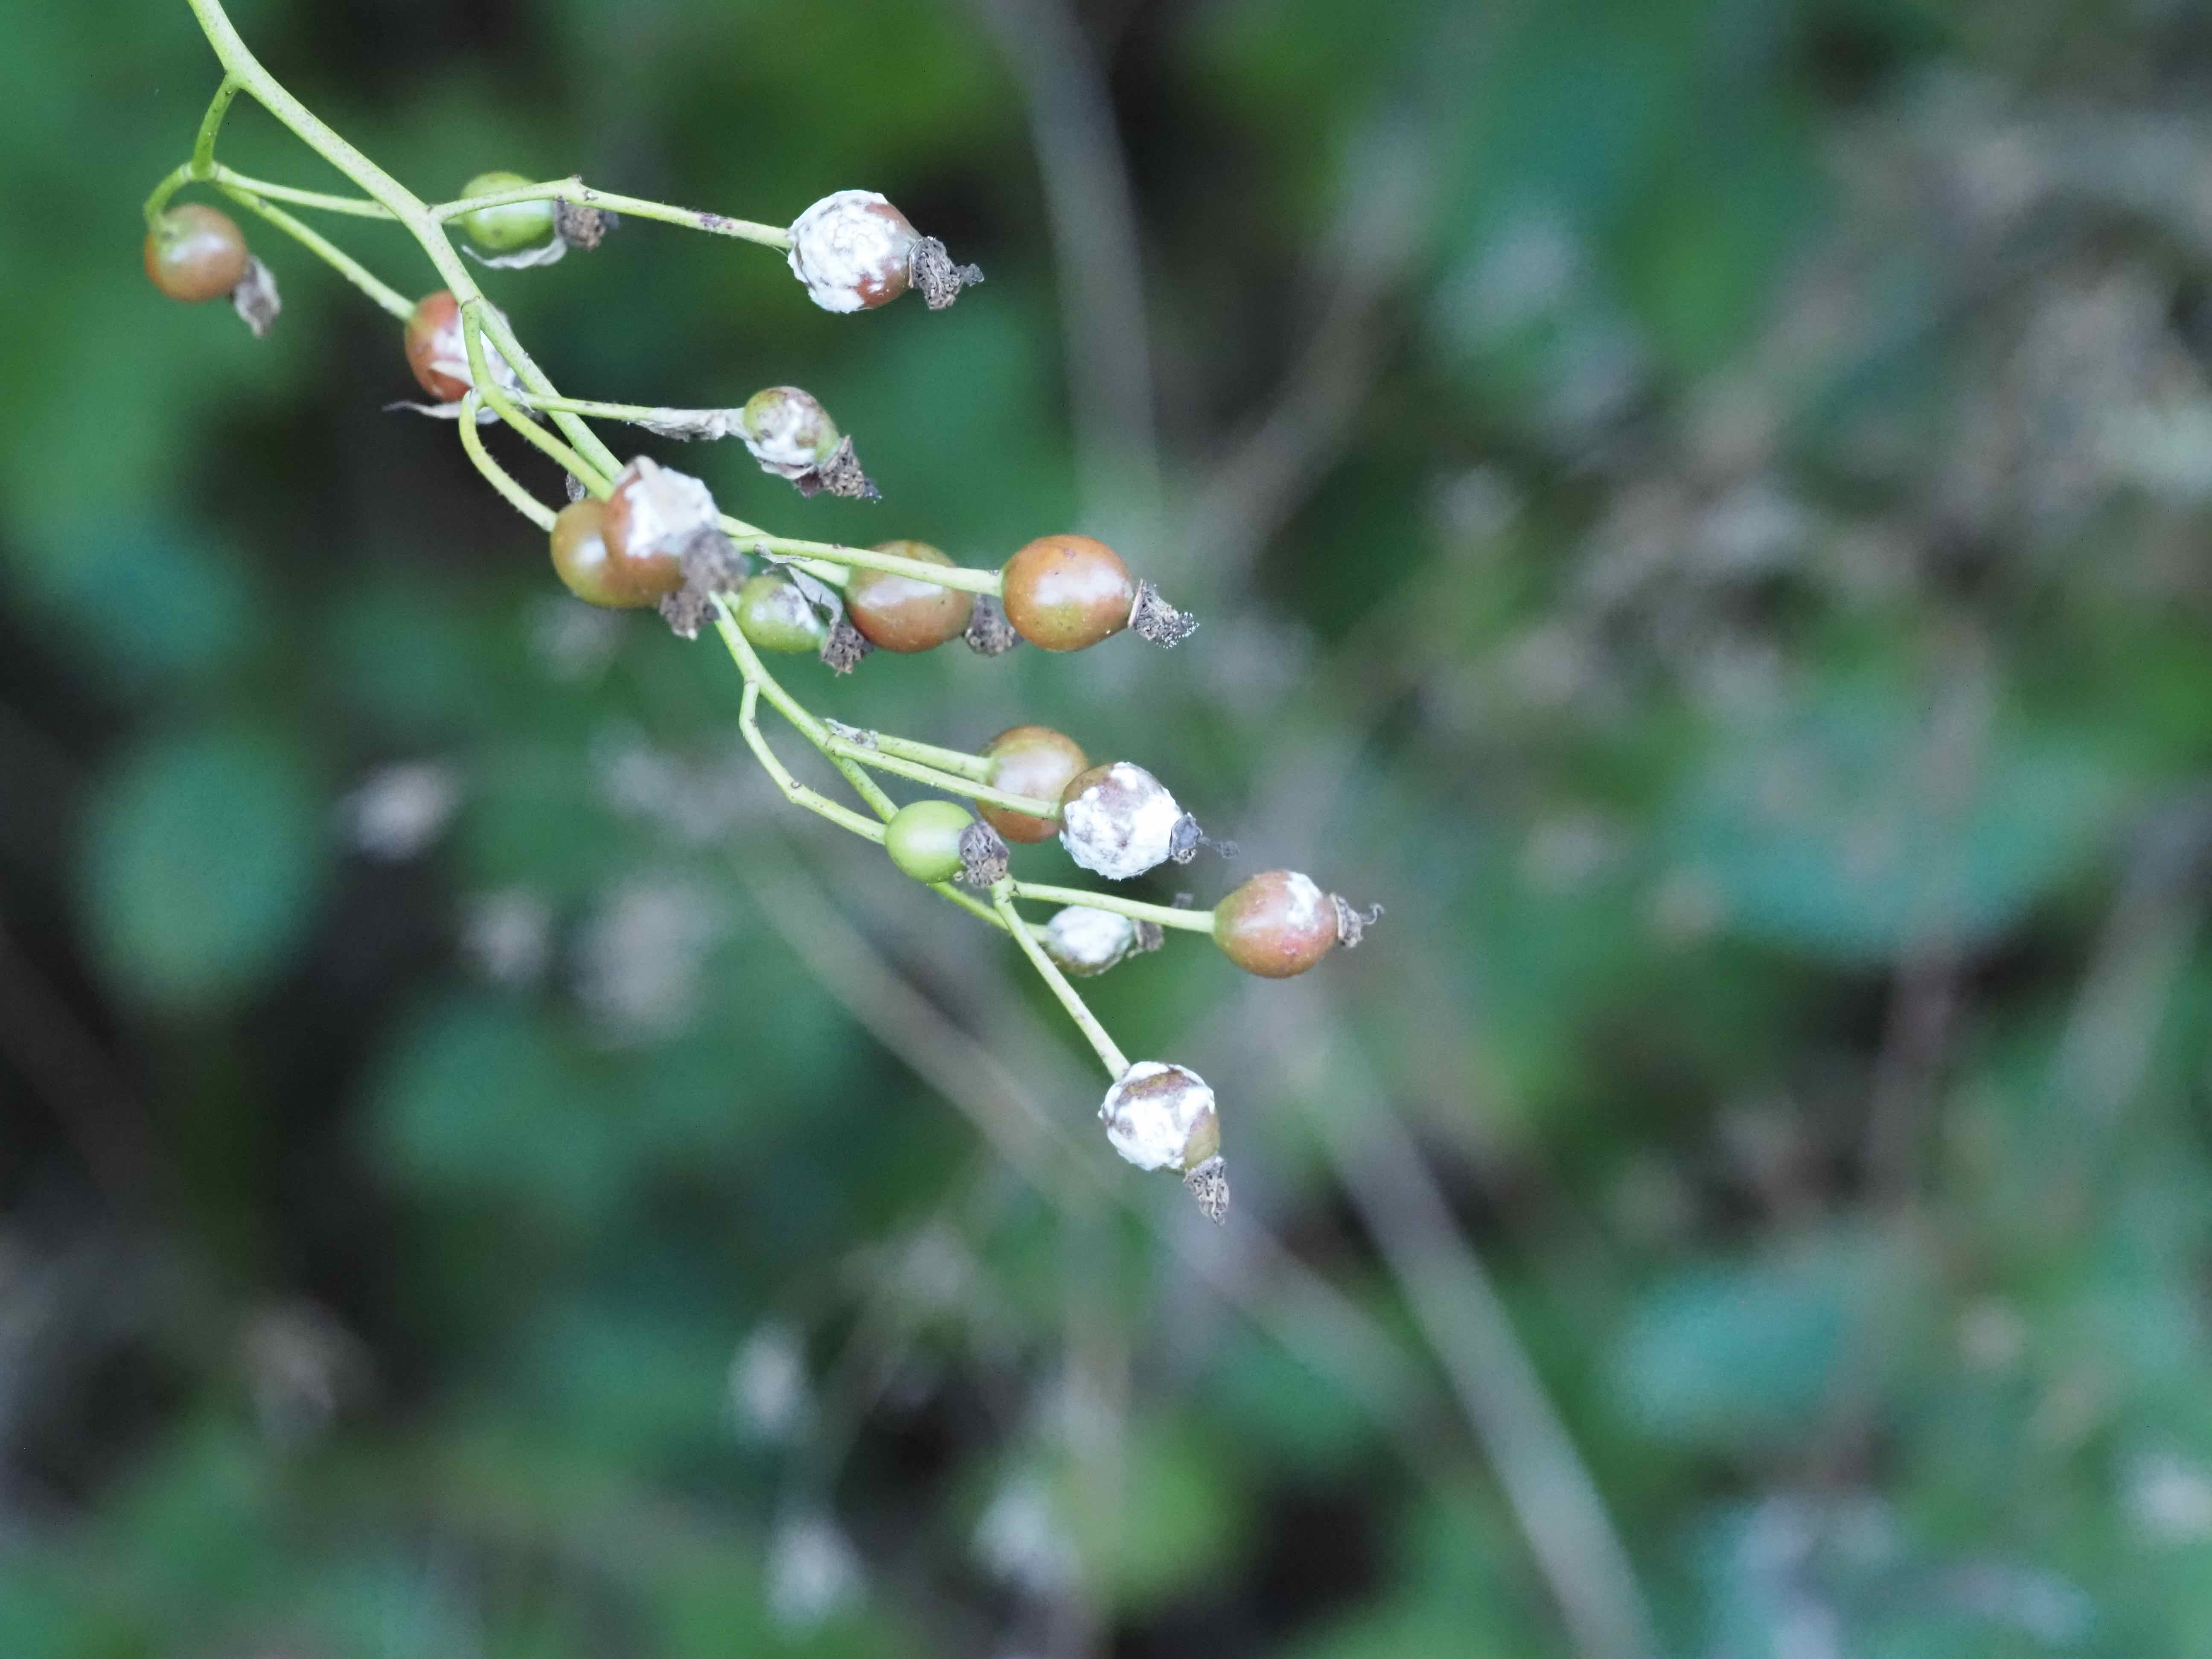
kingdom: Fungi
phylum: Ascomycota
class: Leotiomycetes
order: Helotiales
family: Erysiphaceae
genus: Podosphaera
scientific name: Podosphaera pannosa
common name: Rose mildew
